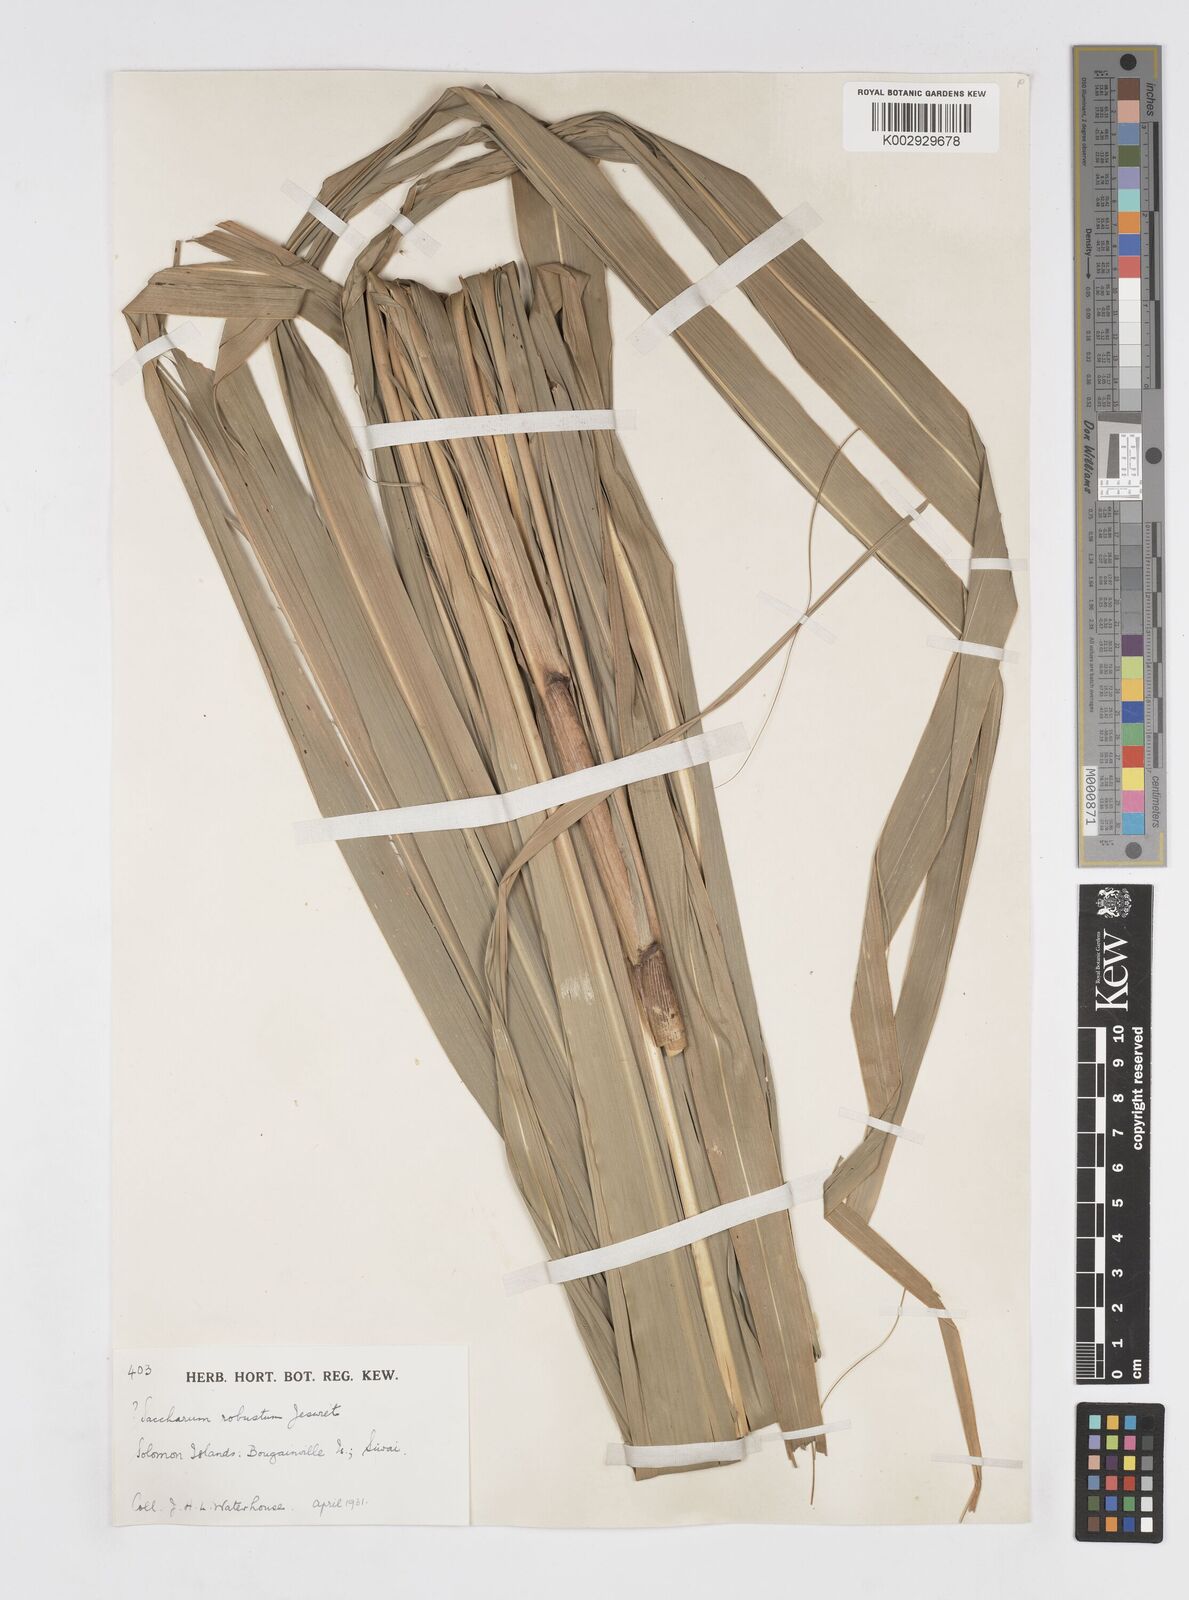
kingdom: Plantae
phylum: Tracheophyta
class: Liliopsida
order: Poales
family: Poaceae
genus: Saccharum
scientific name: Saccharum robustum
